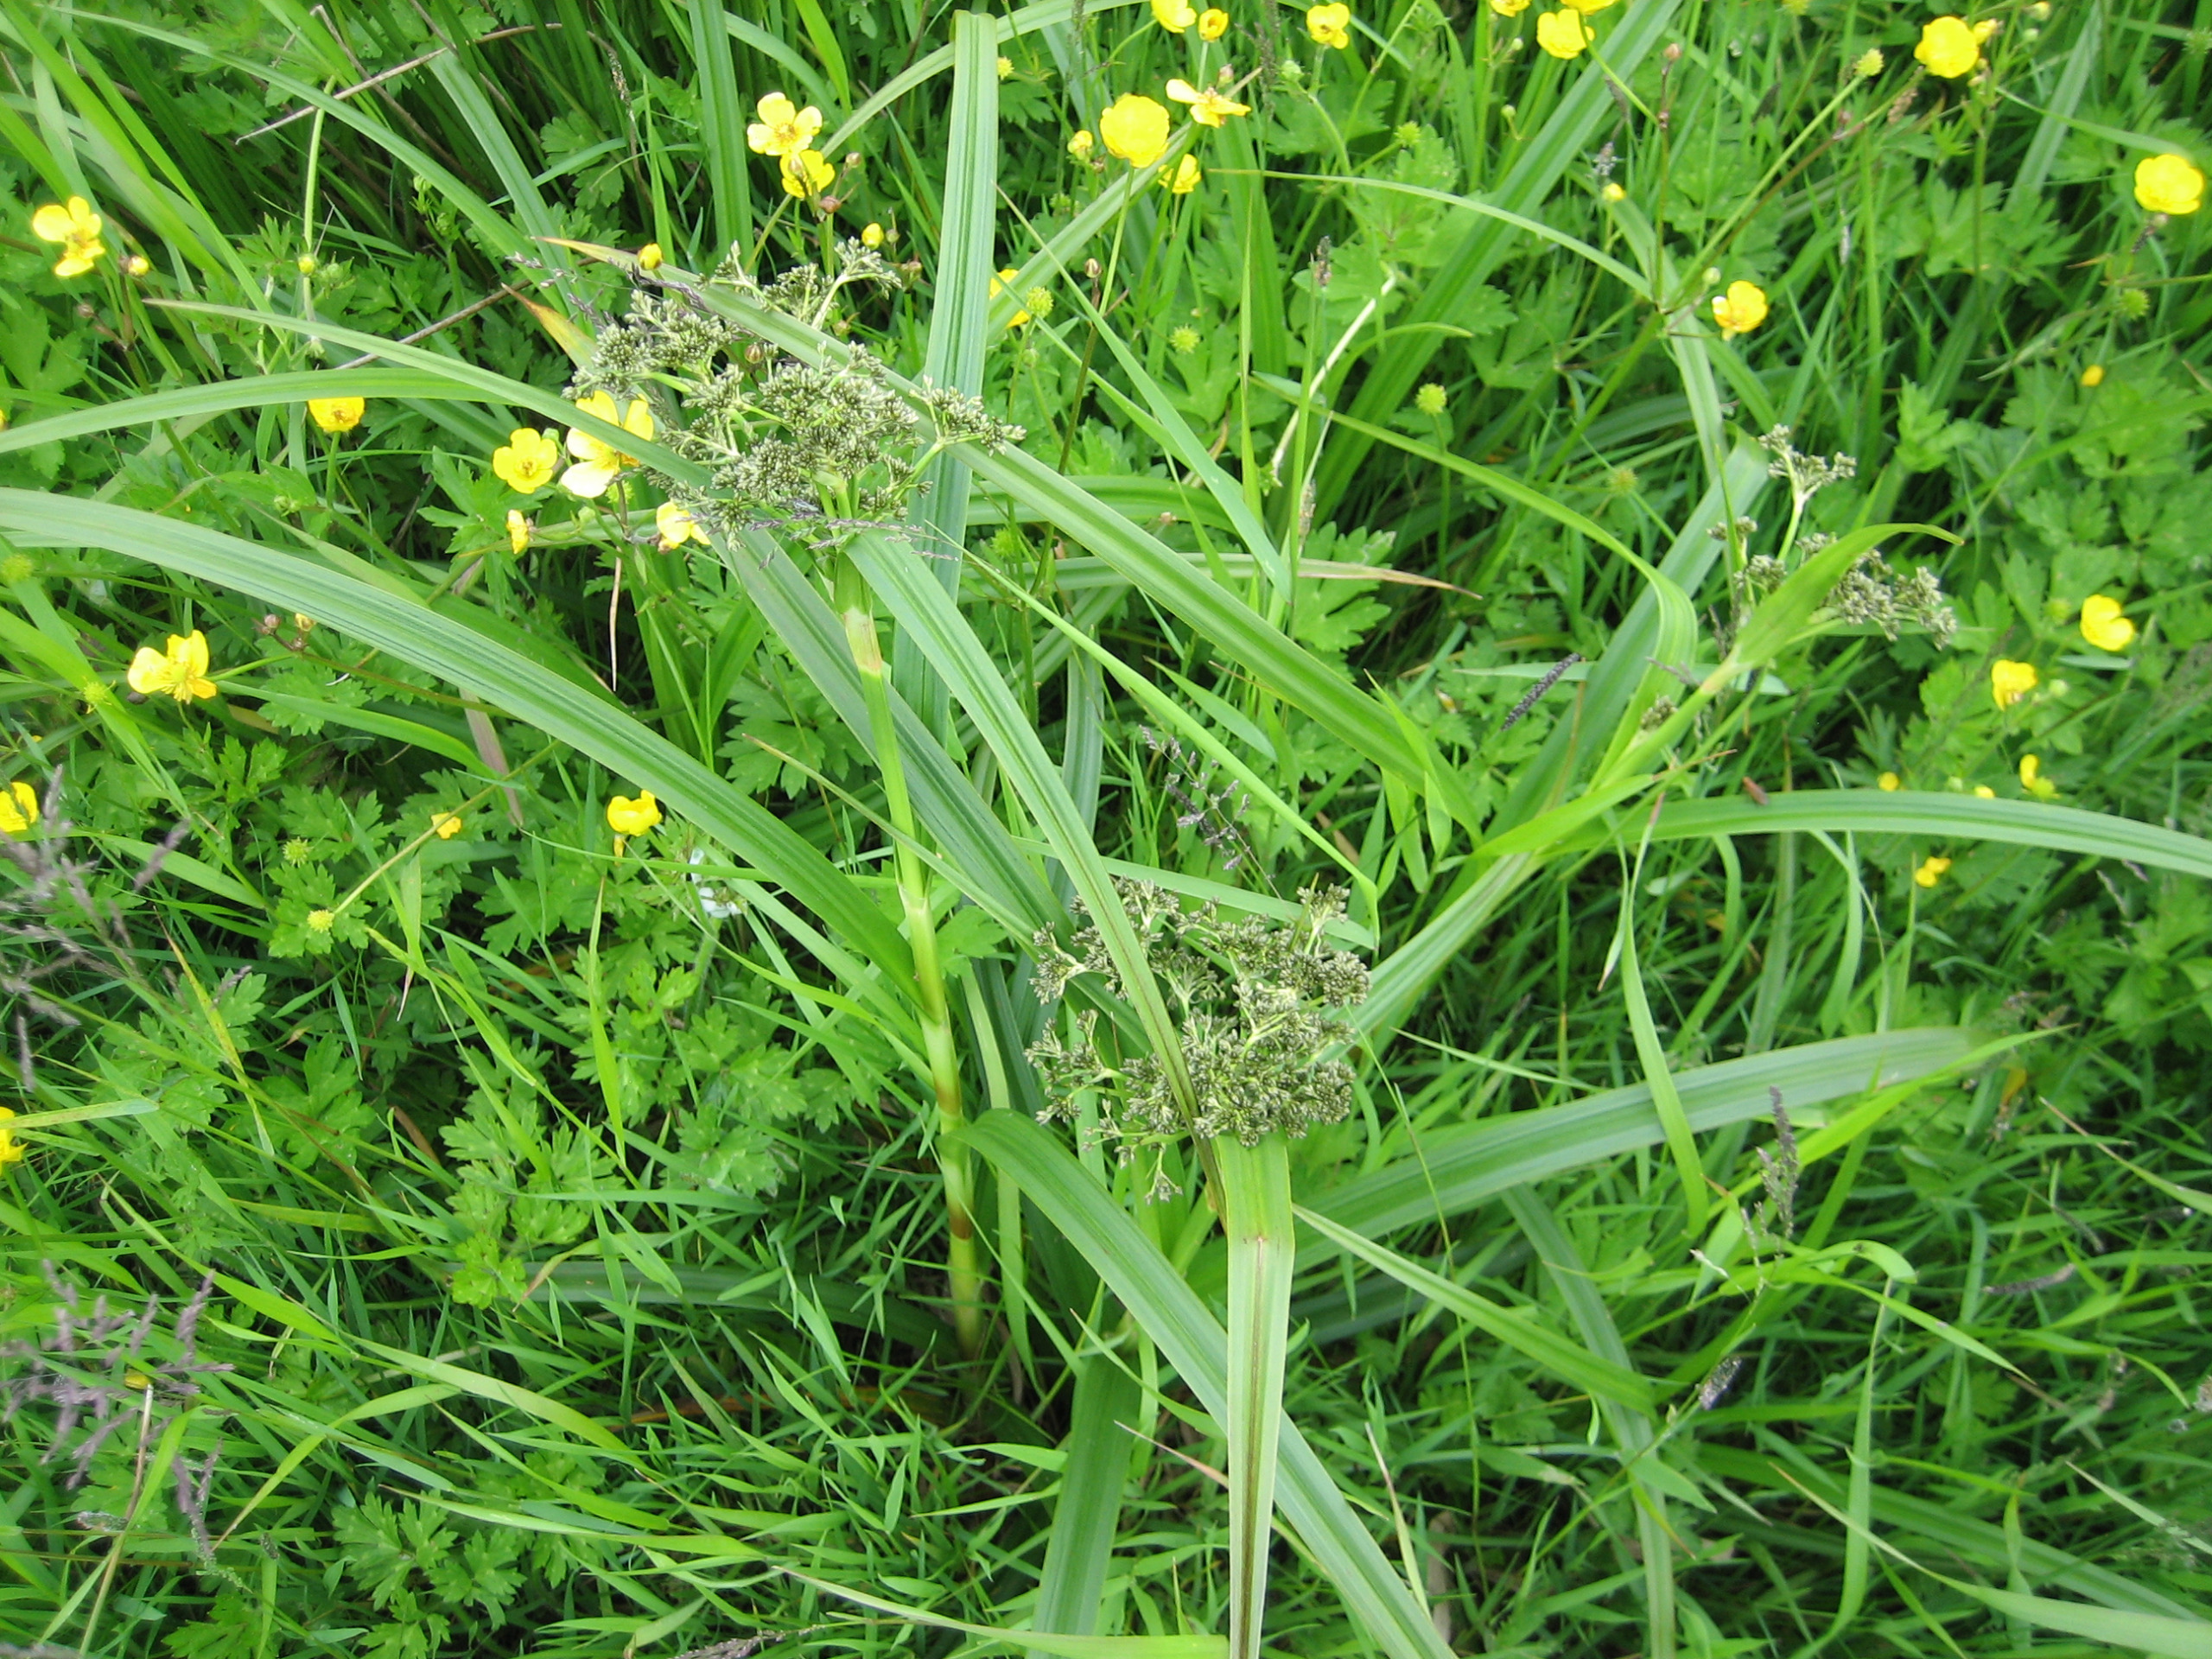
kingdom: Plantae
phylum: Tracheophyta
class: Liliopsida
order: Poales
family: Cyperaceae
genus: Scirpus
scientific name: Scirpus sylvaticus
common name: Skov-kogleaks
